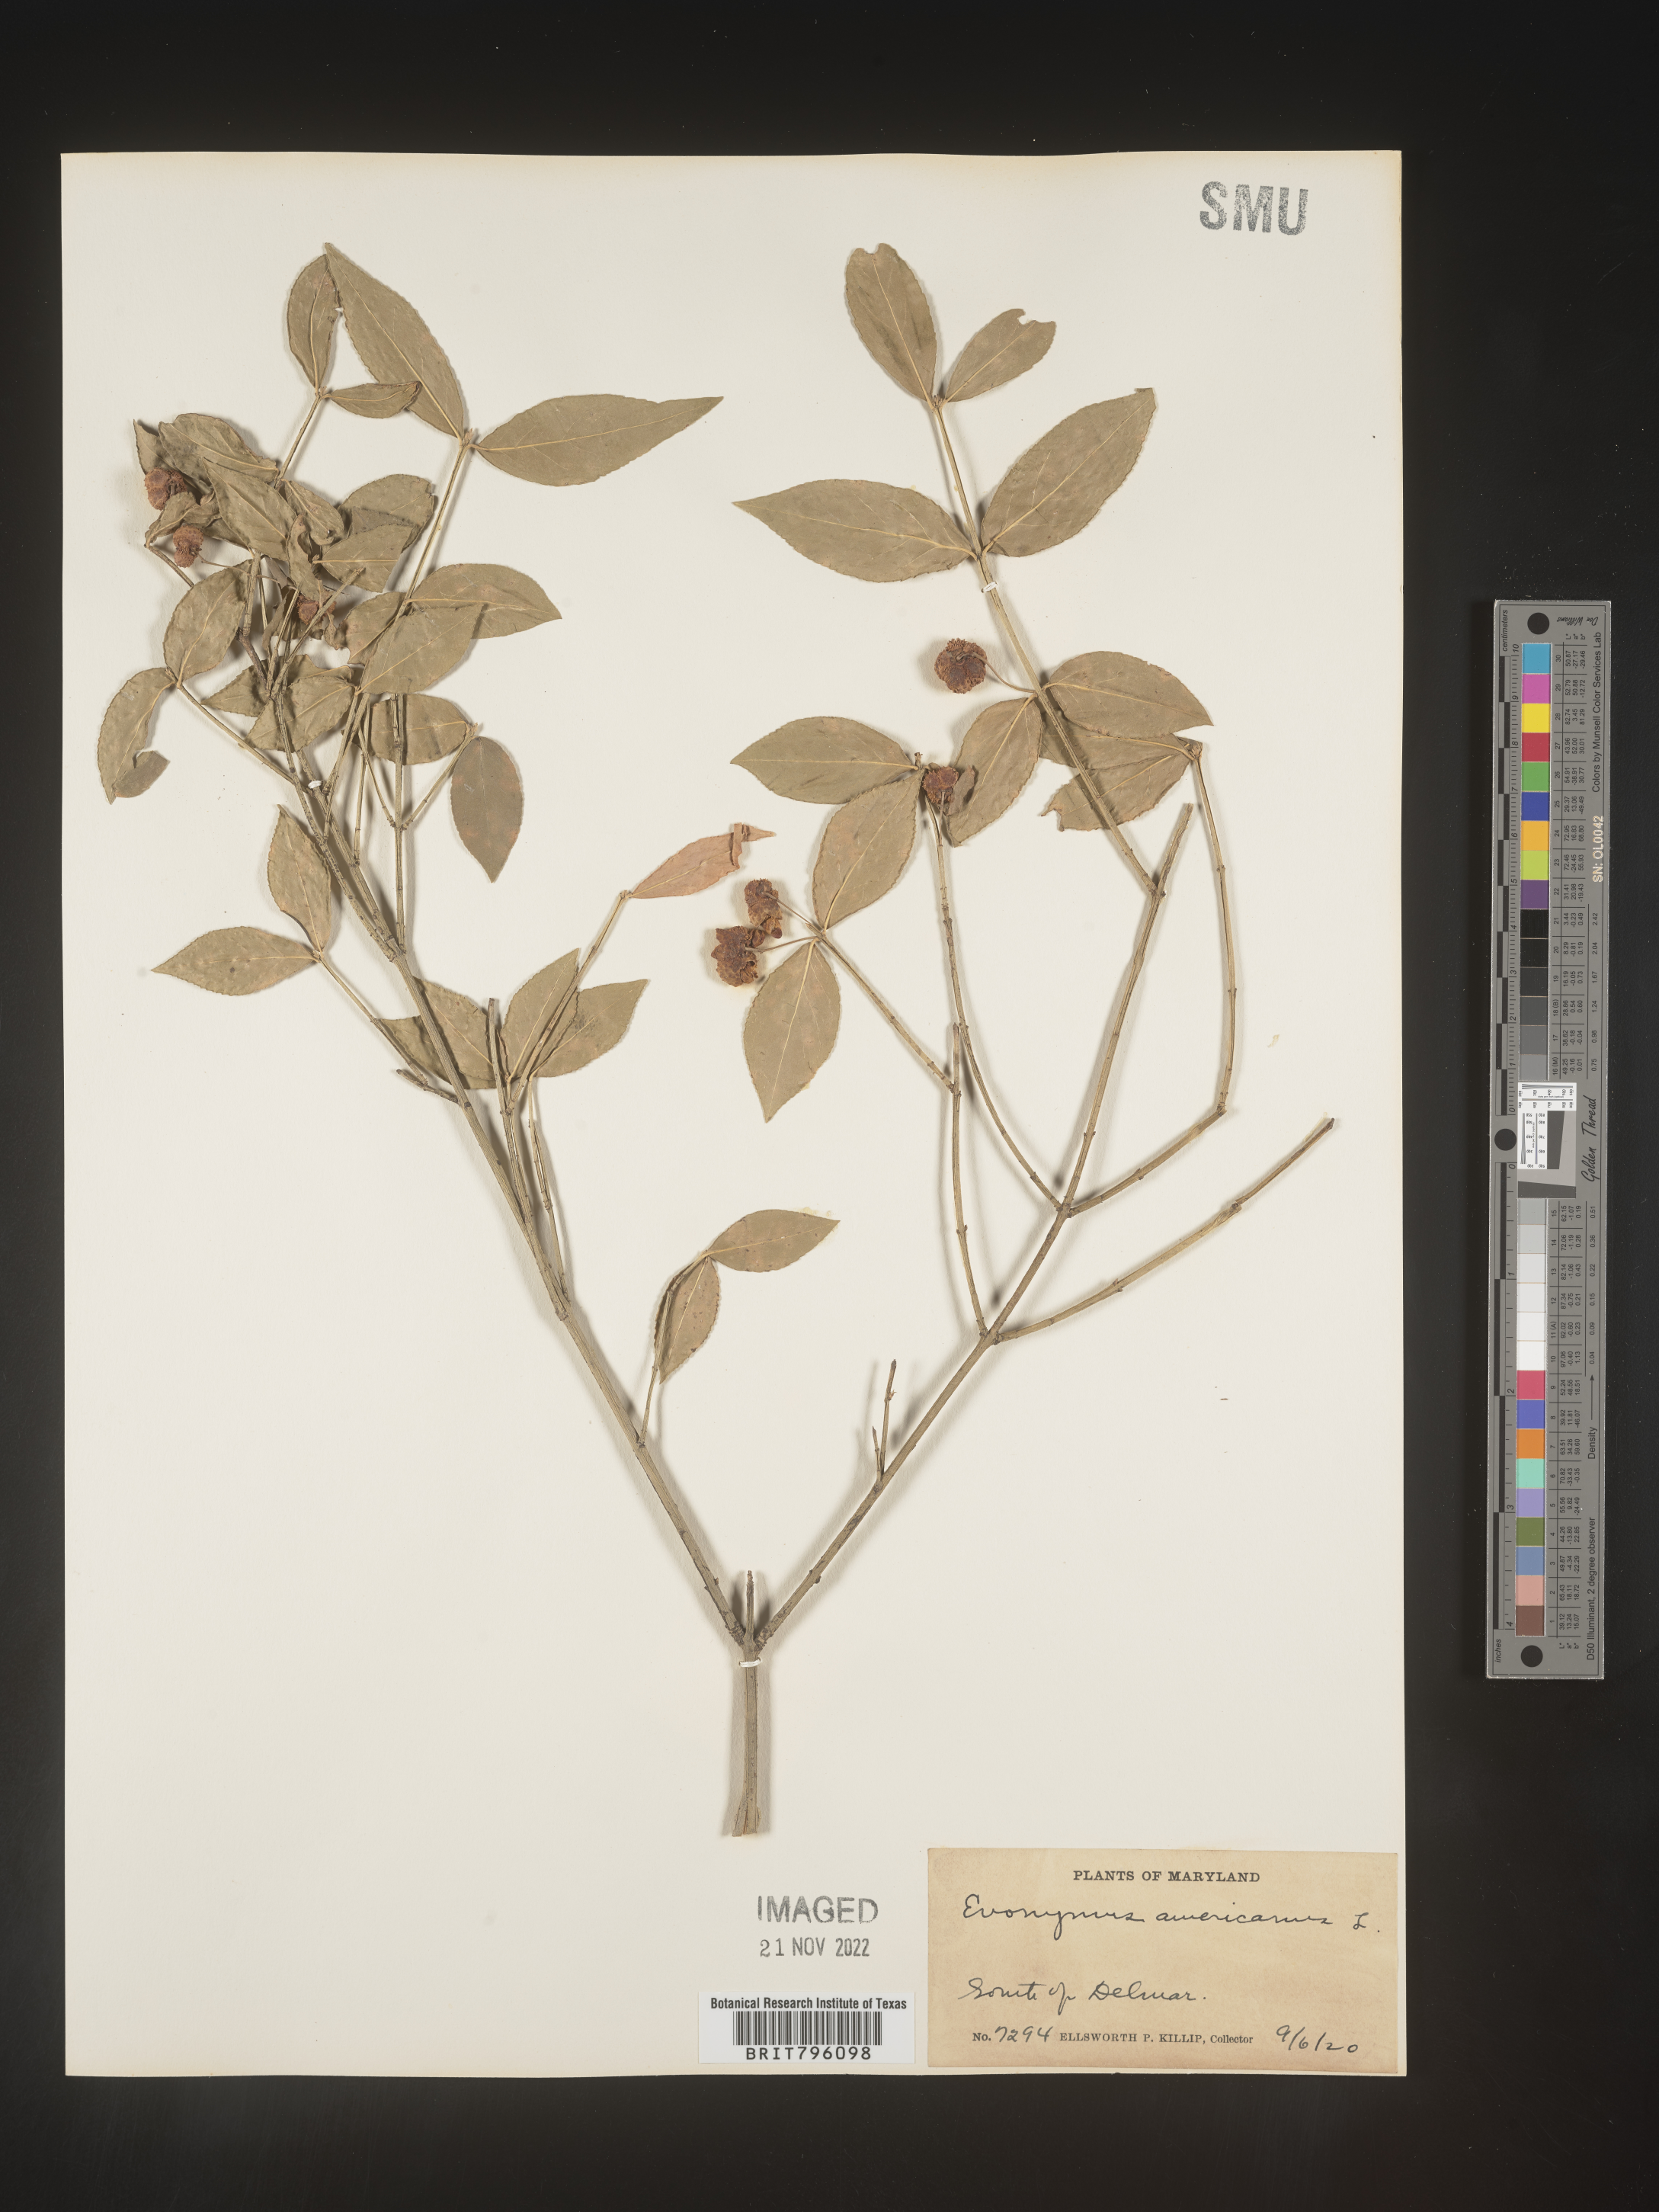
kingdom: Plantae
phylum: Tracheophyta
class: Magnoliopsida
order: Celastrales
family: Celastraceae
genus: Euonymus
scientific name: Euonymus americanus
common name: Bursting-heart
